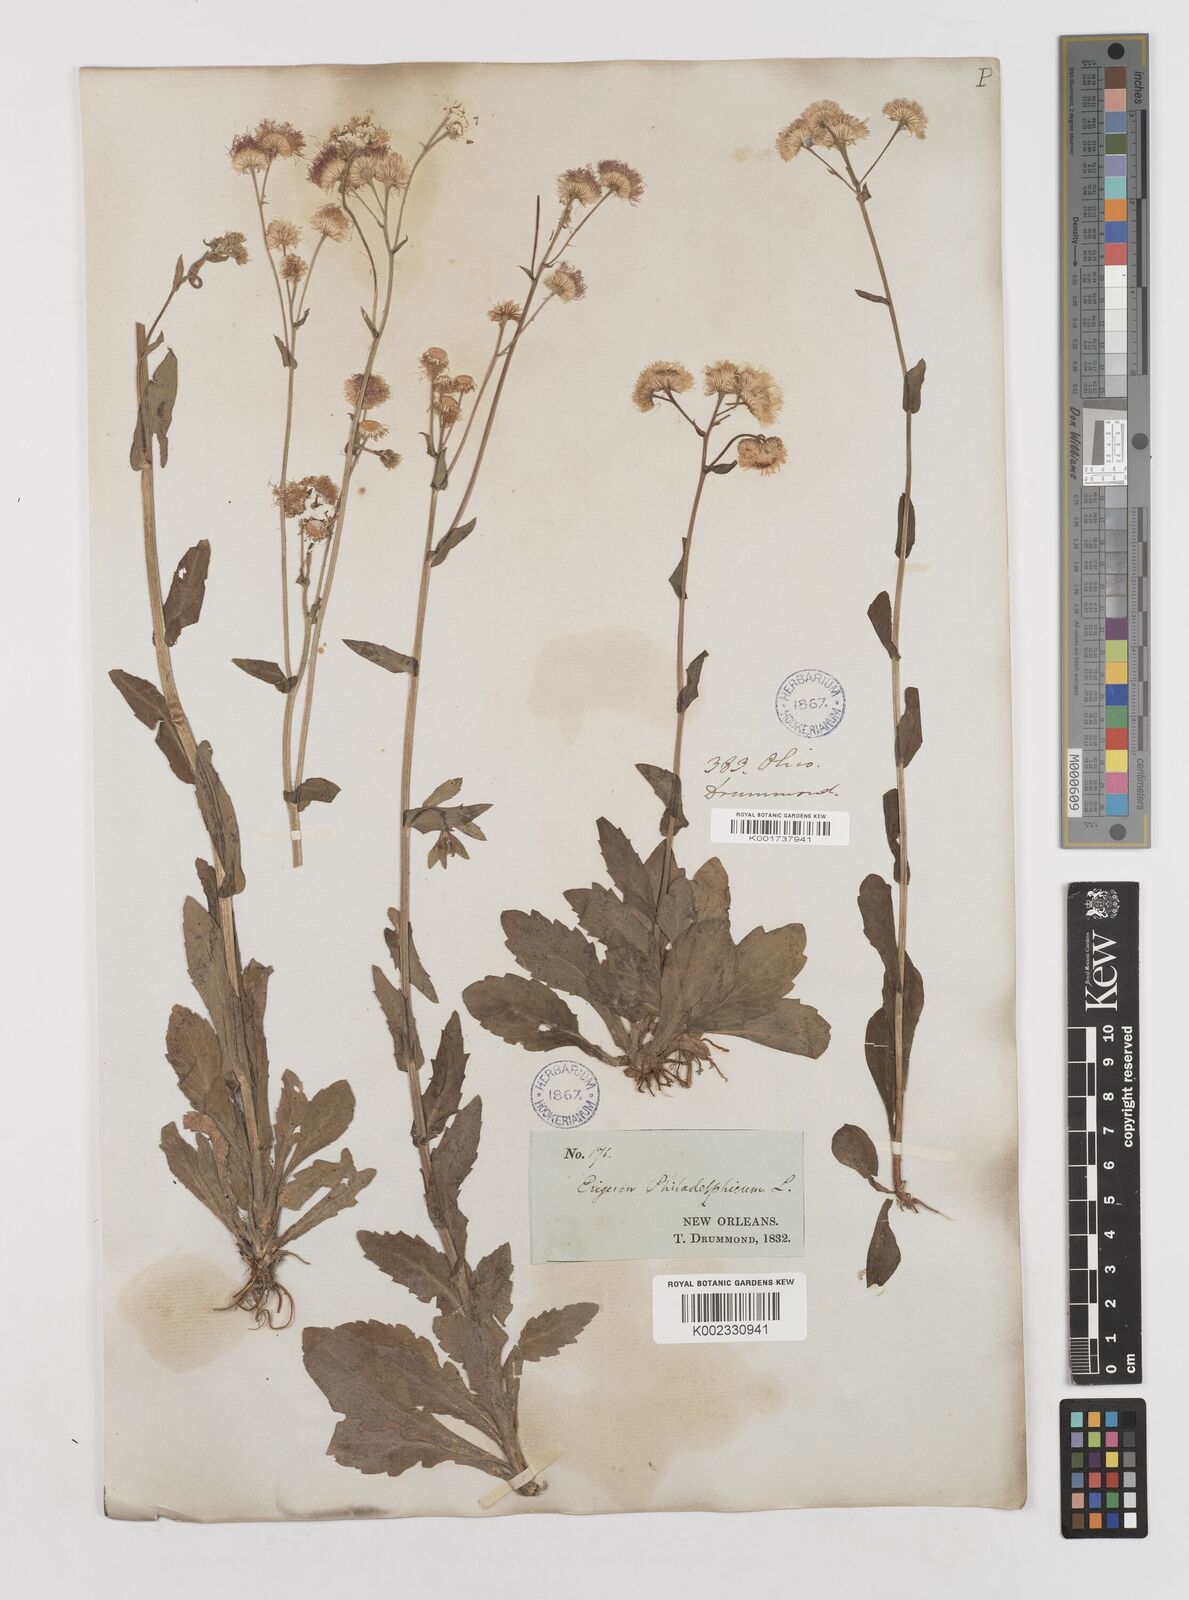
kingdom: Plantae
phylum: Tracheophyta
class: Magnoliopsida
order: Asterales
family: Asteraceae
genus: Erigeron
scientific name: Erigeron philadelphicus
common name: Robin's-plantain
